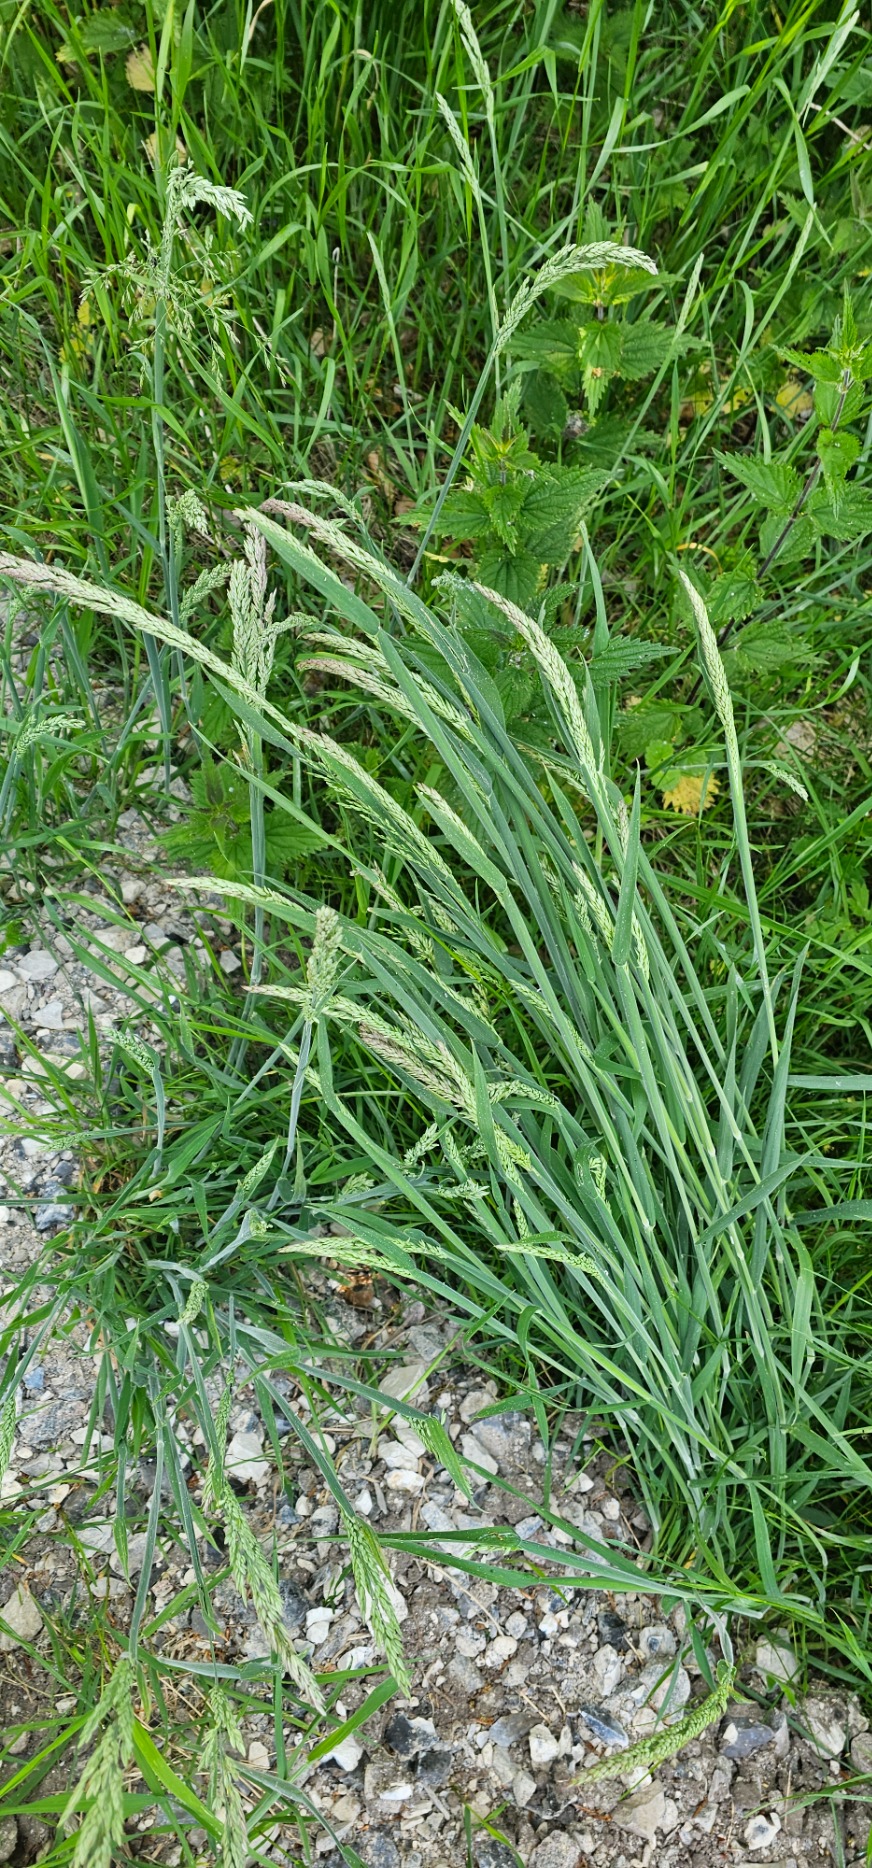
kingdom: Plantae
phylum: Tracheophyta
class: Liliopsida
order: Poales
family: Poaceae
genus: Holcus
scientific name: Holcus lanatus
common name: Fløjlsgræs
